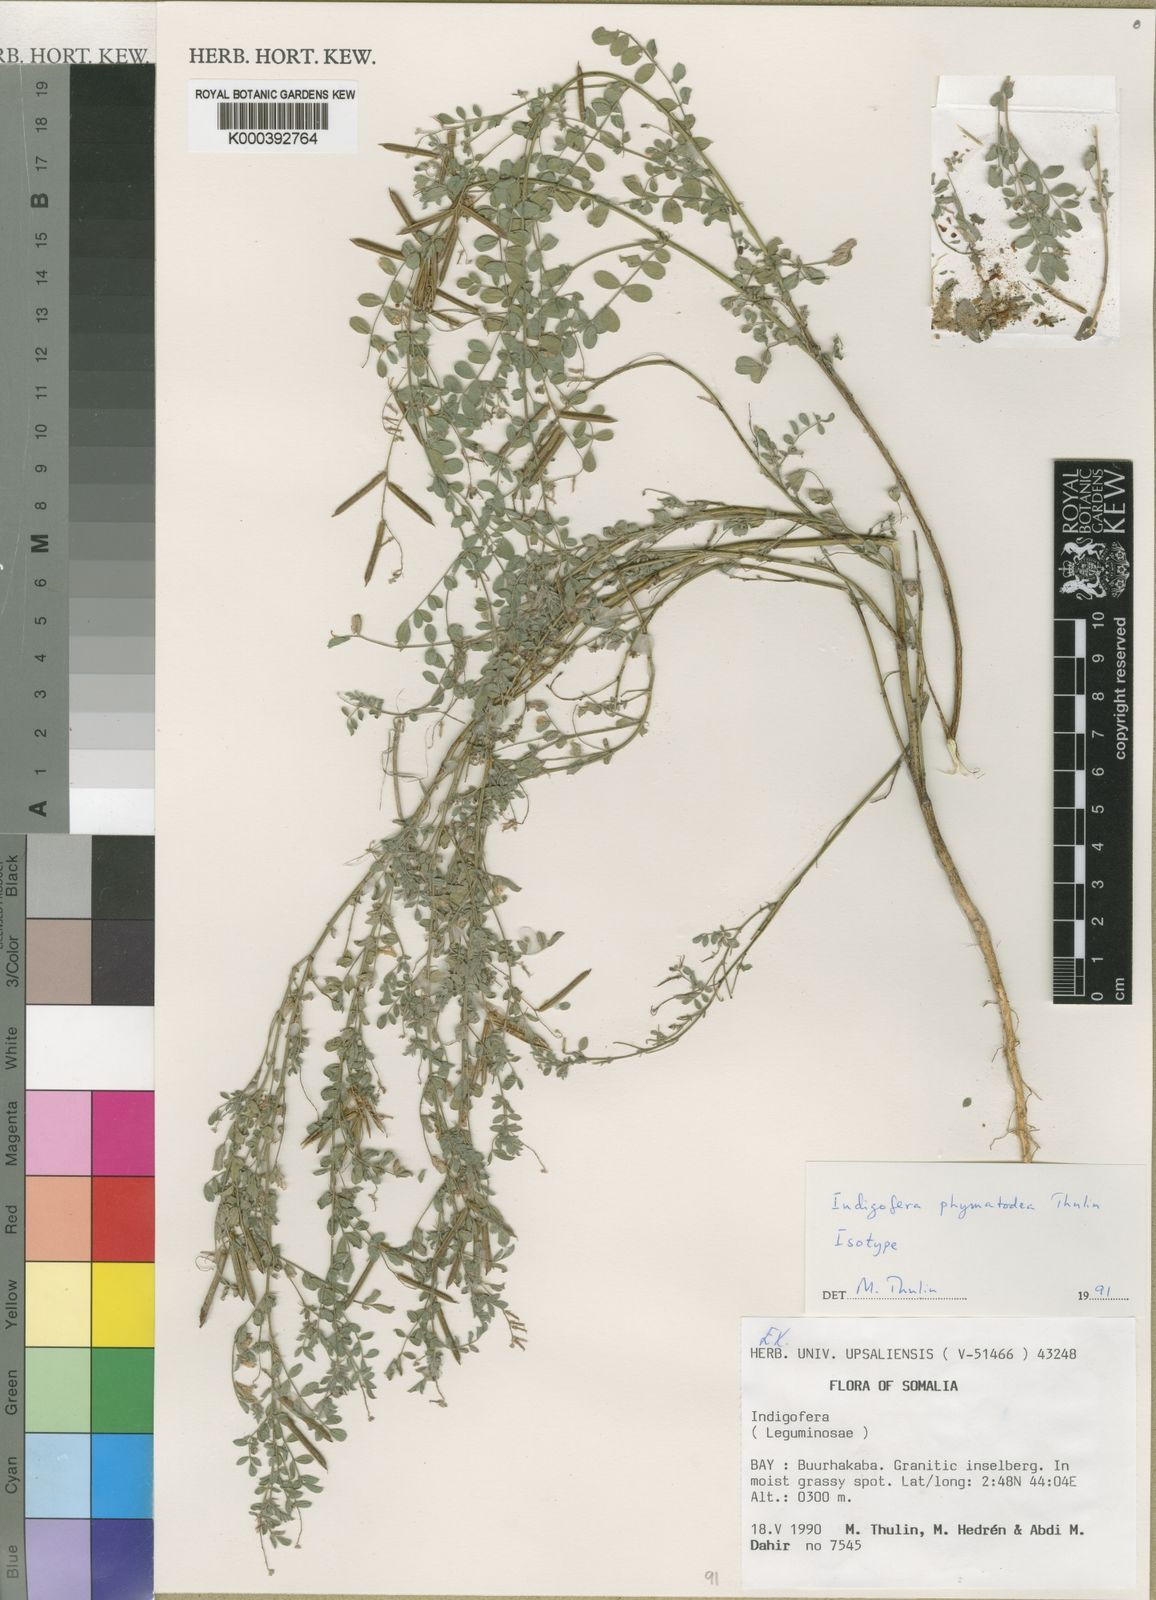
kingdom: Plantae
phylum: Tracheophyta
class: Magnoliopsida
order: Fabales
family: Fabaceae
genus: Indigofera
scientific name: Indigofera phymatodea
